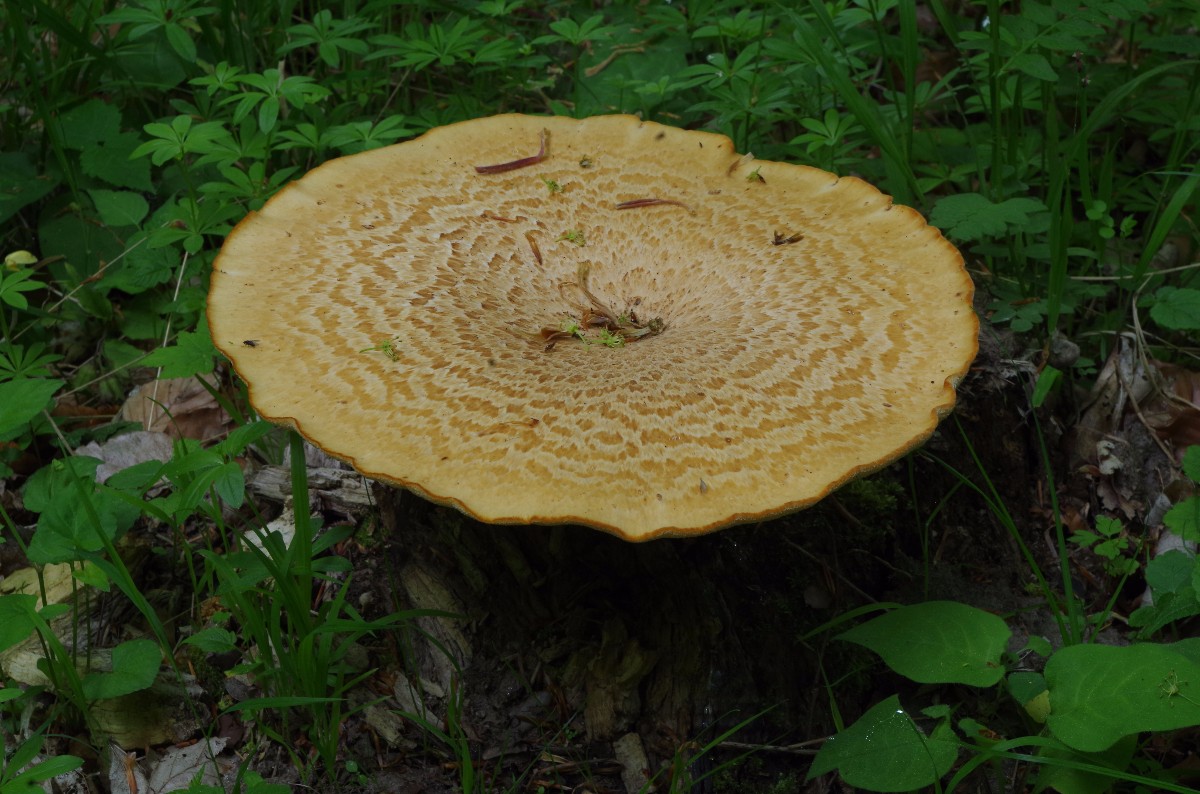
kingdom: Fungi
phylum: Basidiomycota
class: Agaricomycetes
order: Polyporales
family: Polyporaceae
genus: Polyporus
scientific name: Polyporus tuberaster
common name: knoldet stilkporesvamp
